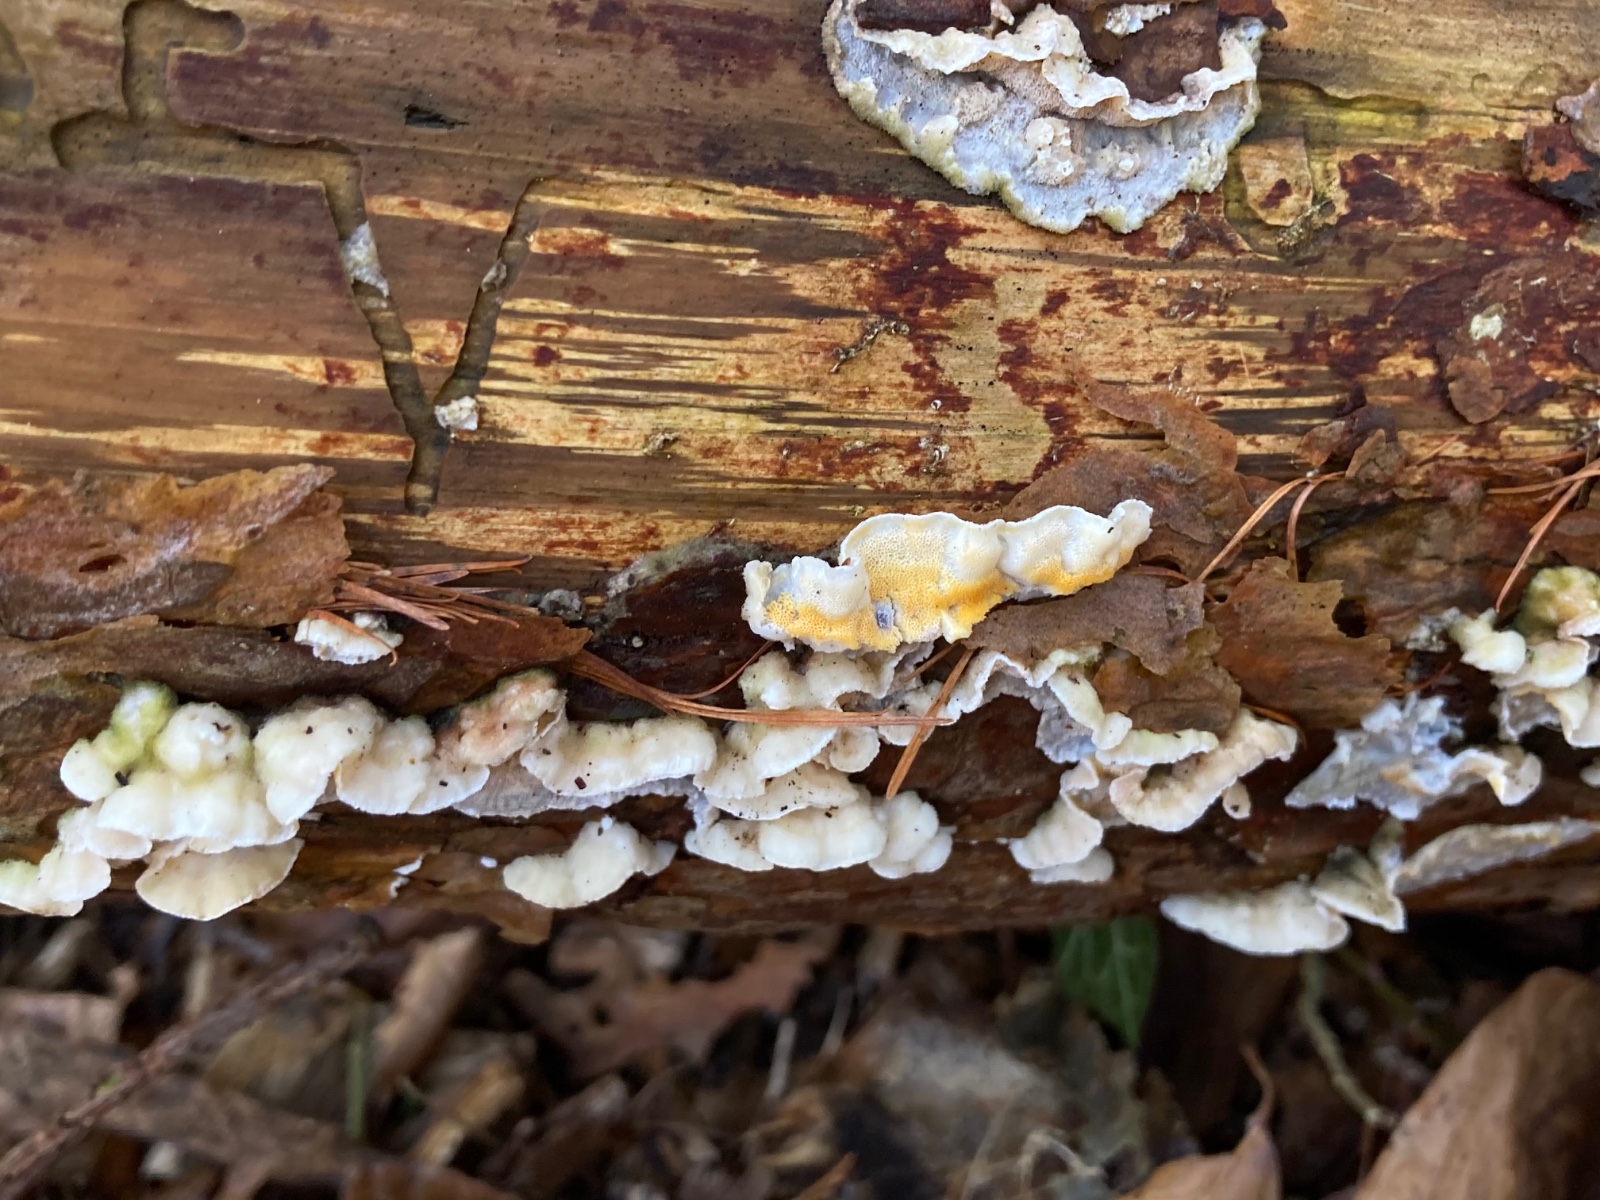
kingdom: Fungi
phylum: Basidiomycota
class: Agaricomycetes
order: Polyporales
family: Incrustoporiaceae
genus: Skeletocutis
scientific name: Skeletocutis amorpha
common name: orange krystalporesvamp
